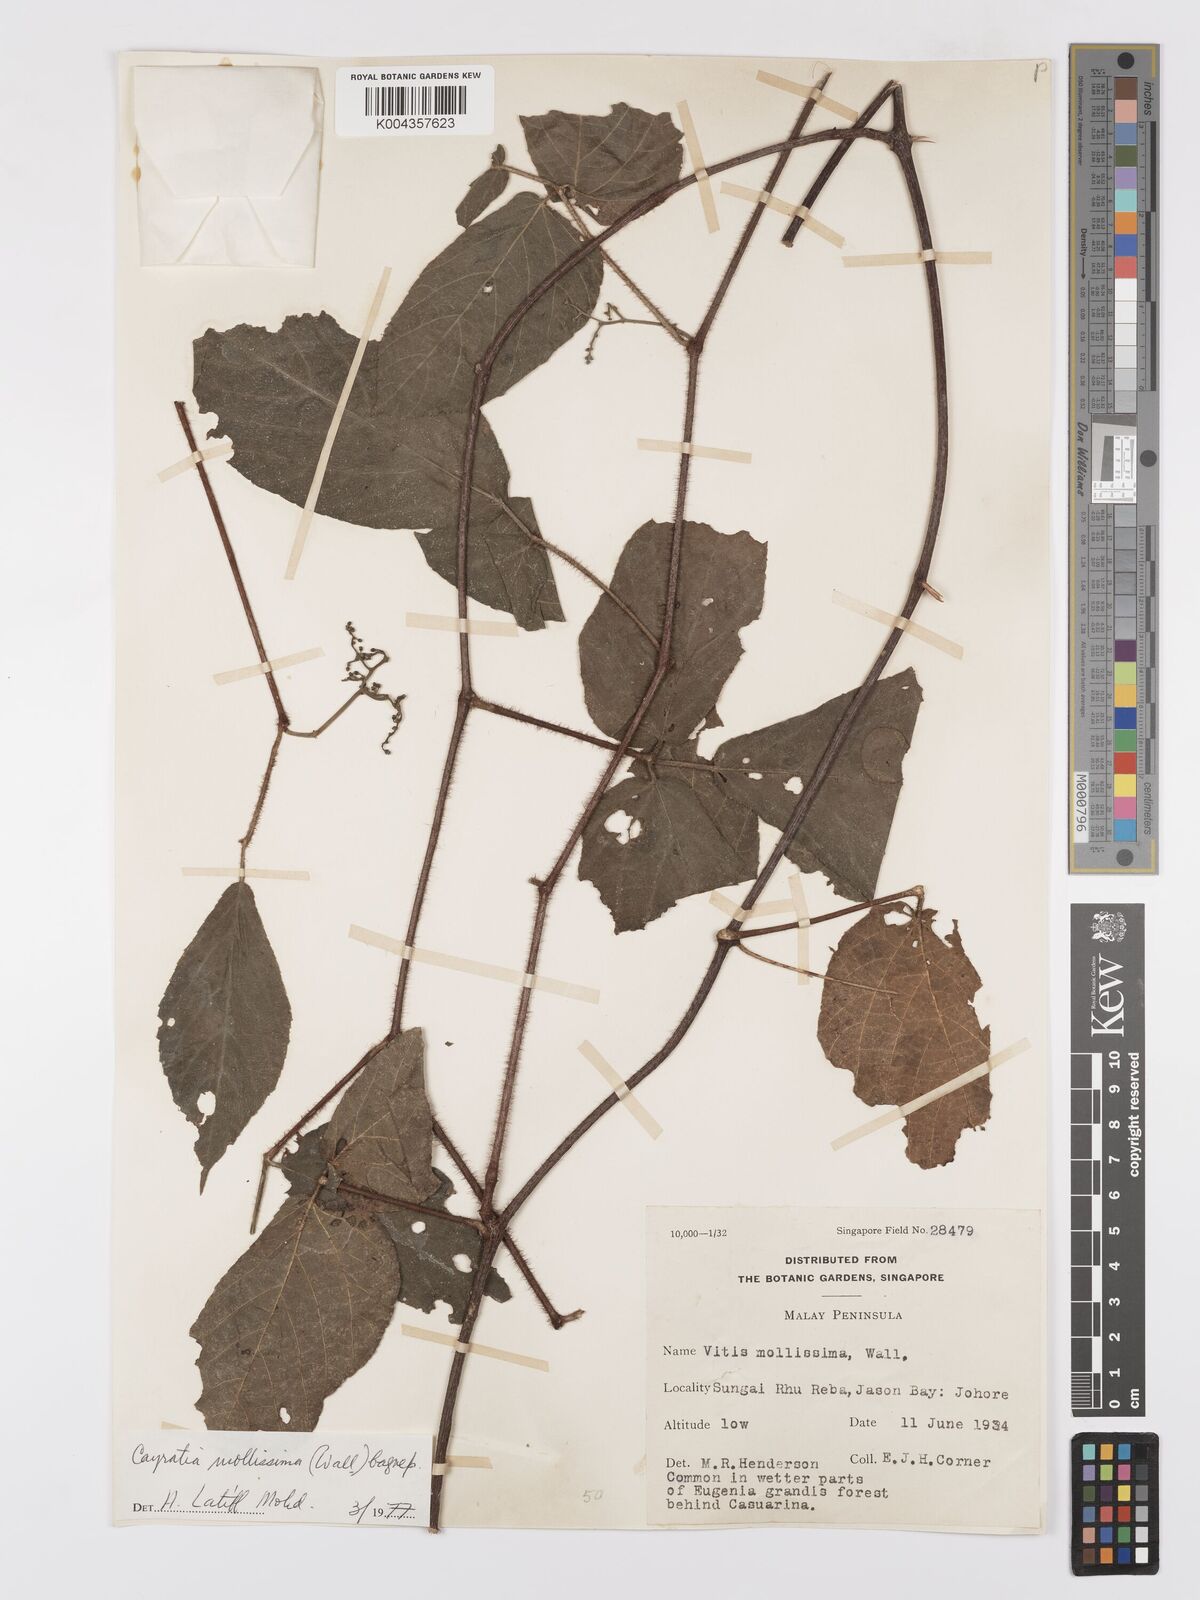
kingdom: Plantae
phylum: Tracheophyta
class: Magnoliopsida
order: Vitales
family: Vitaceae
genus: Cayratia
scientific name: Cayratia mollissima
